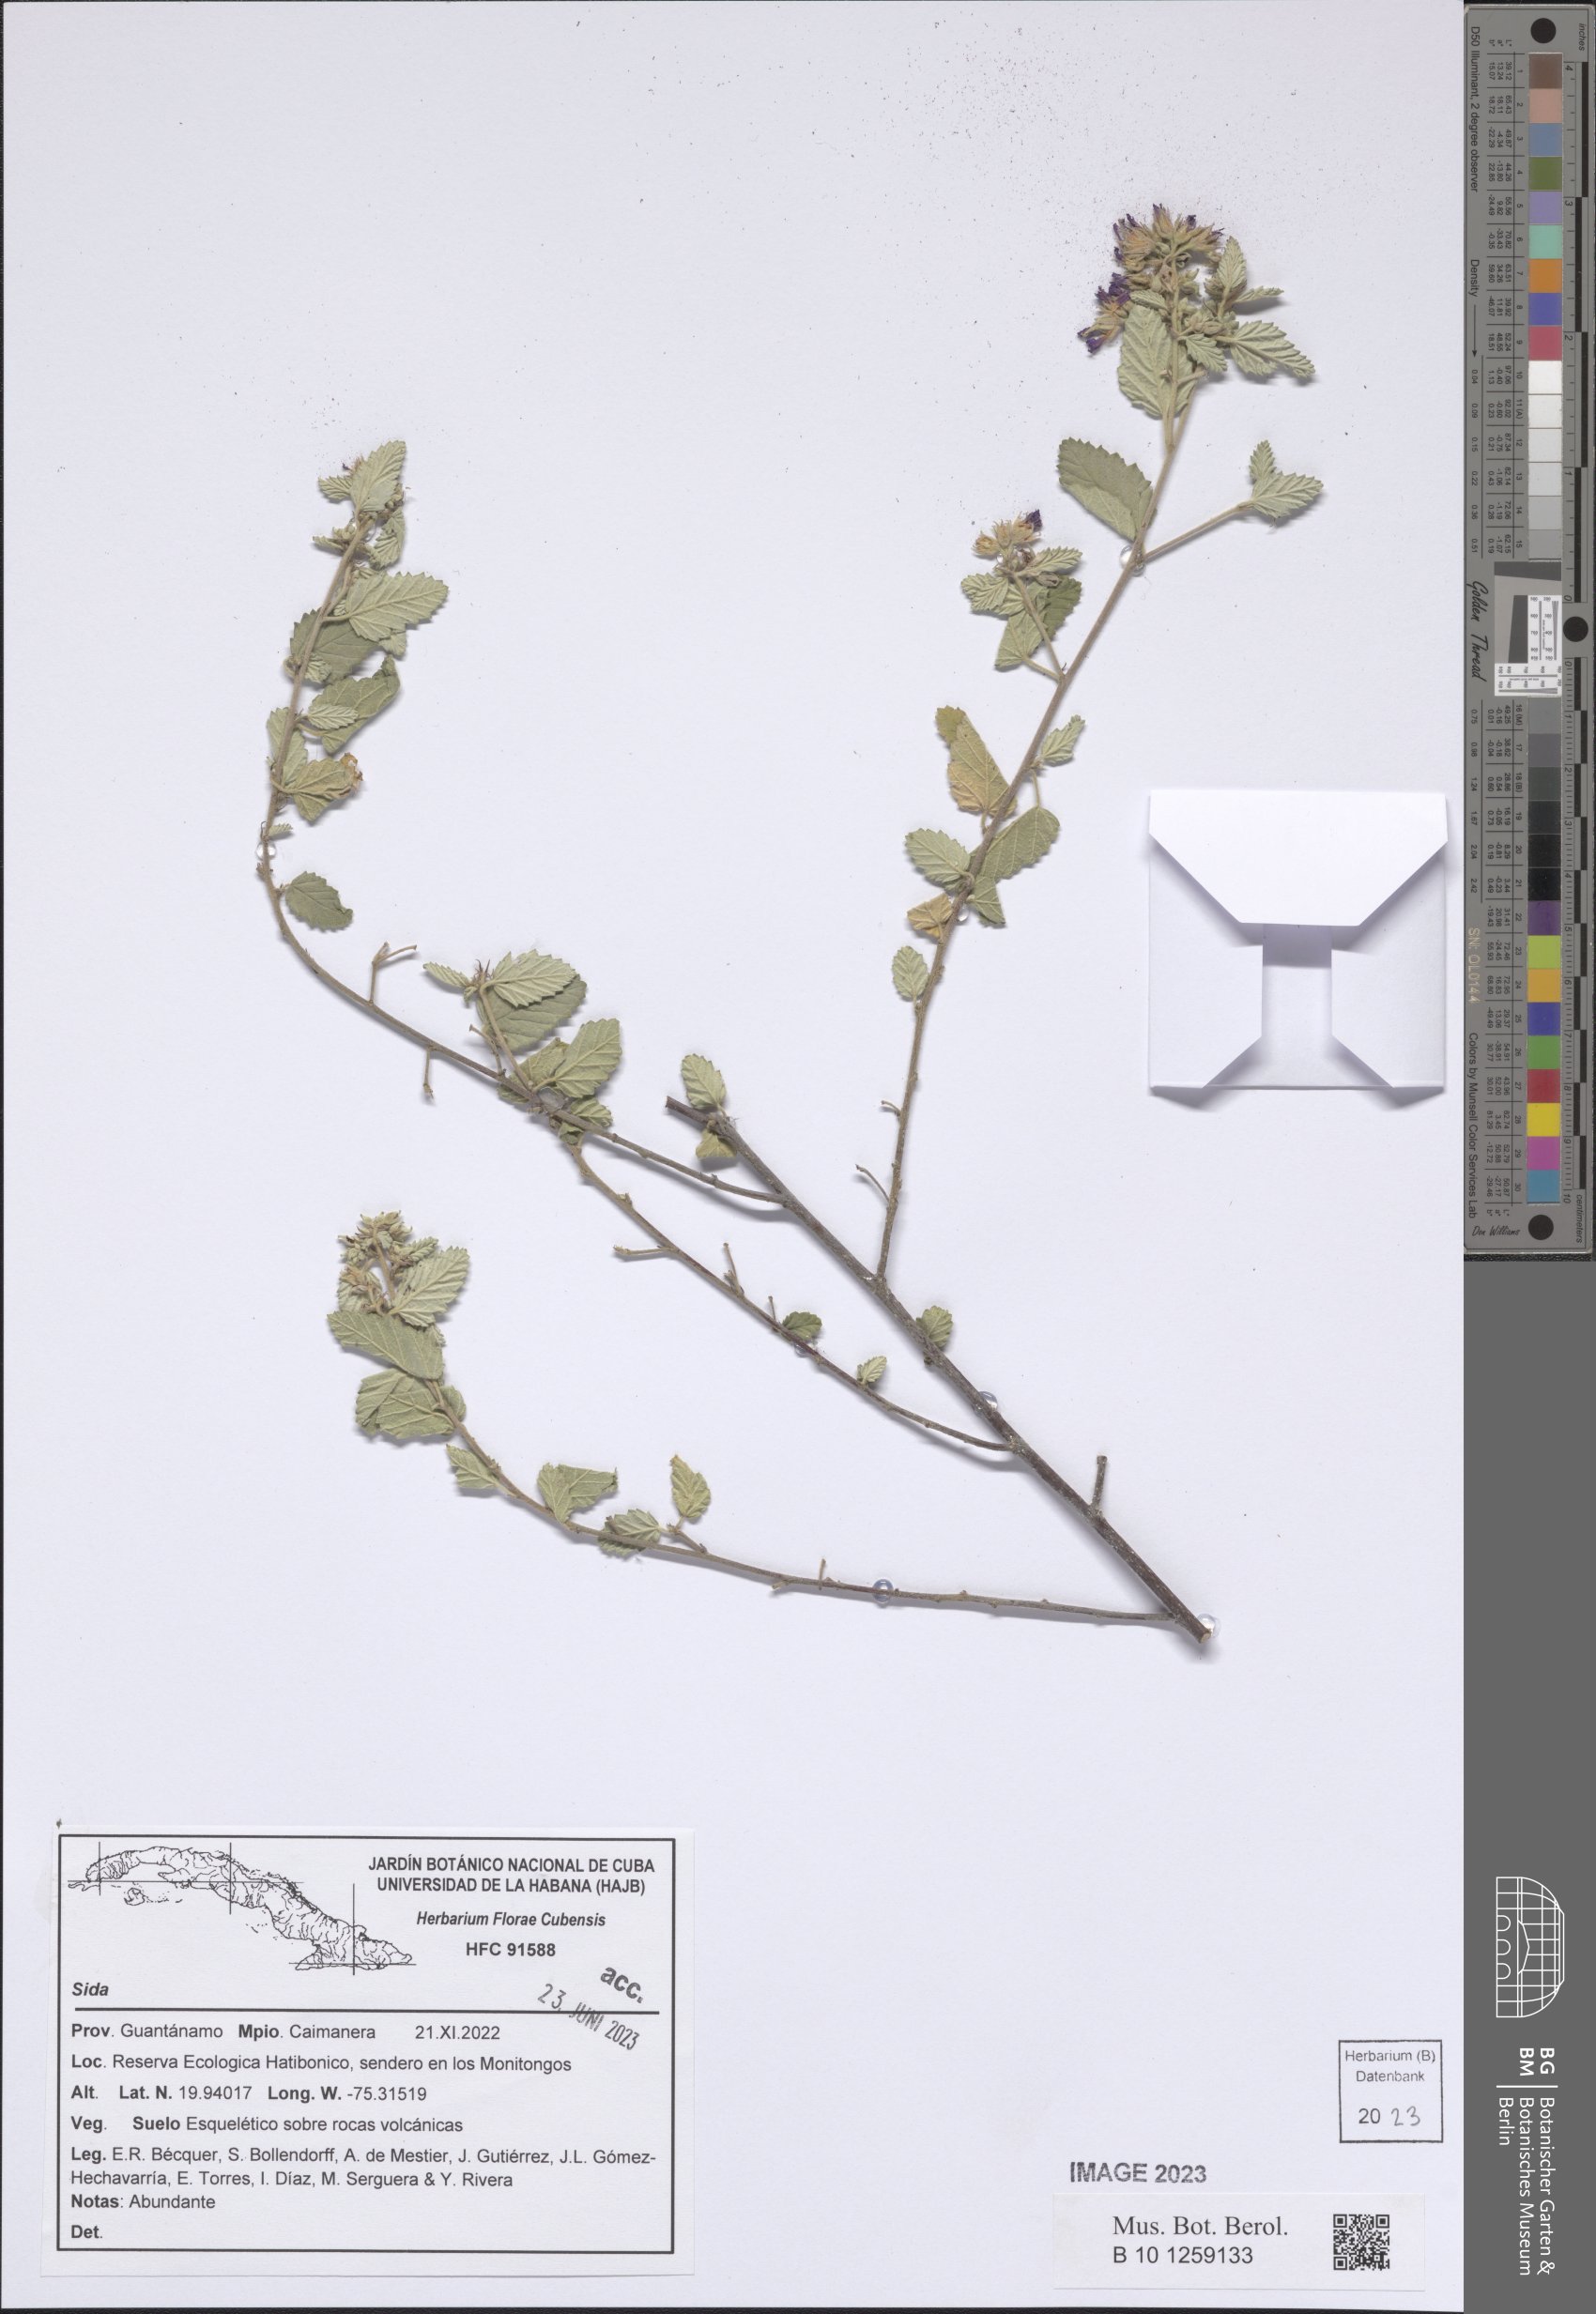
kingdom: Plantae
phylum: Tracheophyta
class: Magnoliopsida
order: Malvales
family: Malvaceae
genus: Sida
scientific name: Sida
